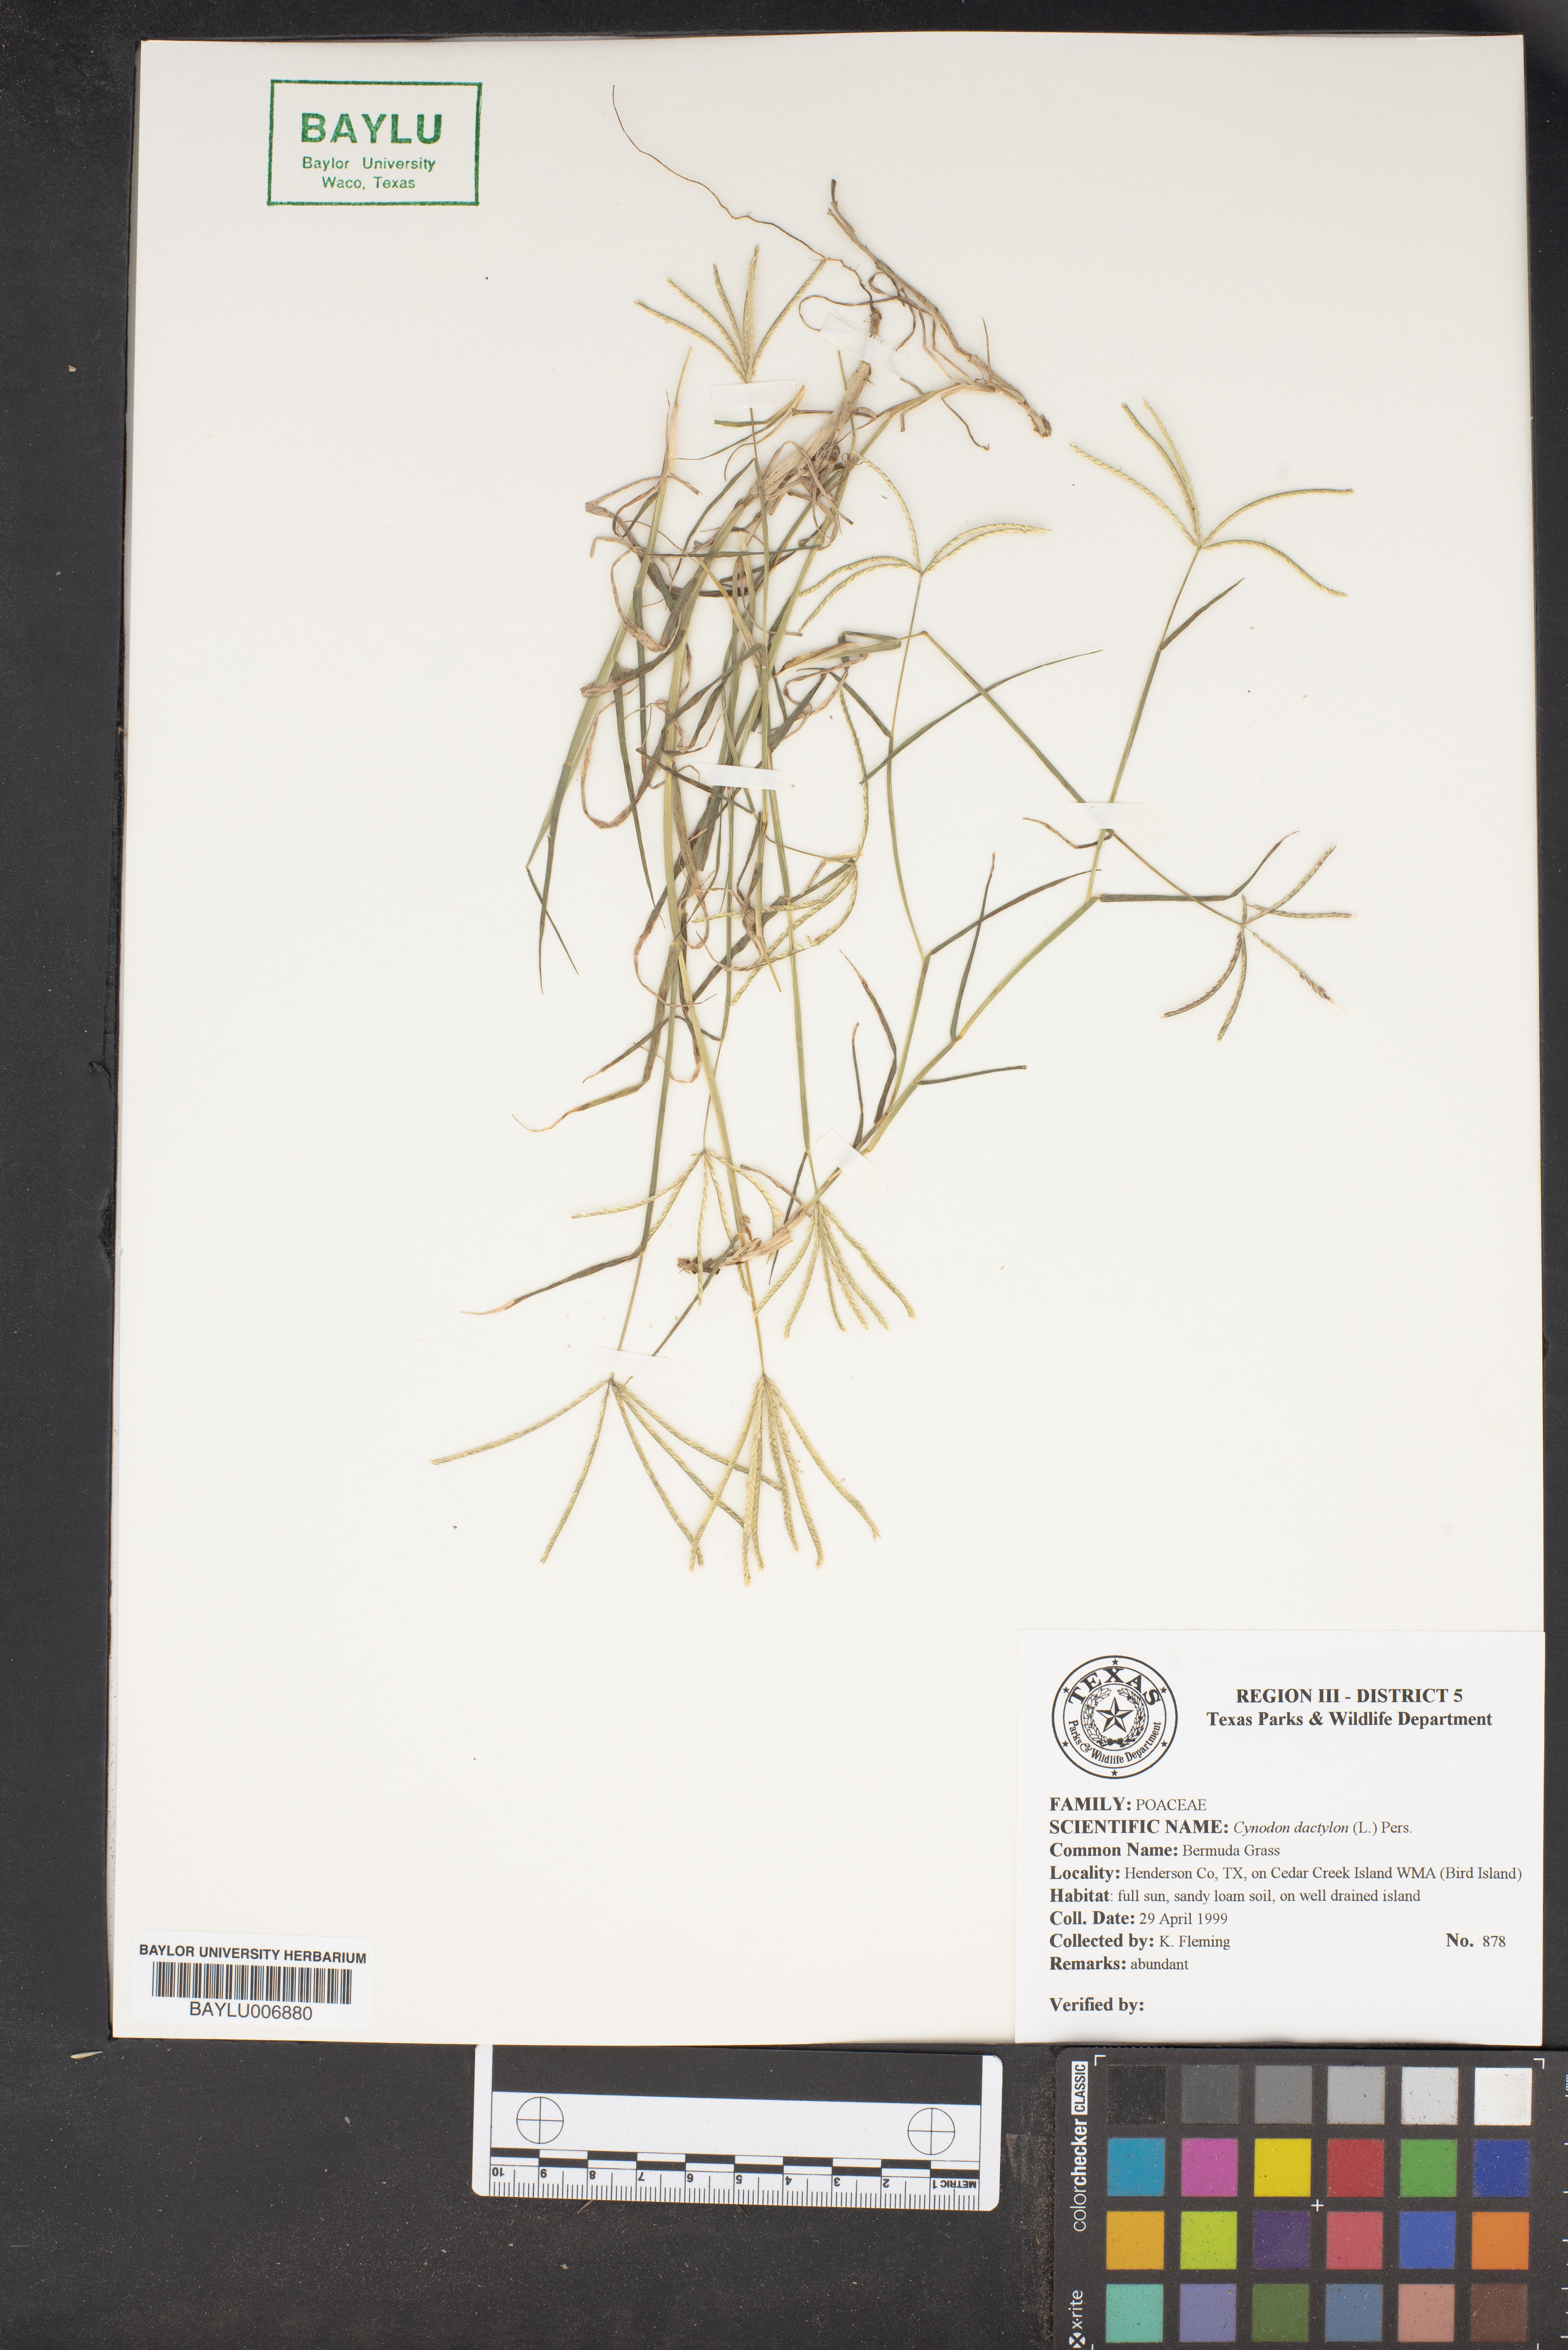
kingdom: Plantae
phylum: Tracheophyta
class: Liliopsida
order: Poales
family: Poaceae
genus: Cynodon
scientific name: Cynodon dactylon
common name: Bermuda grass
